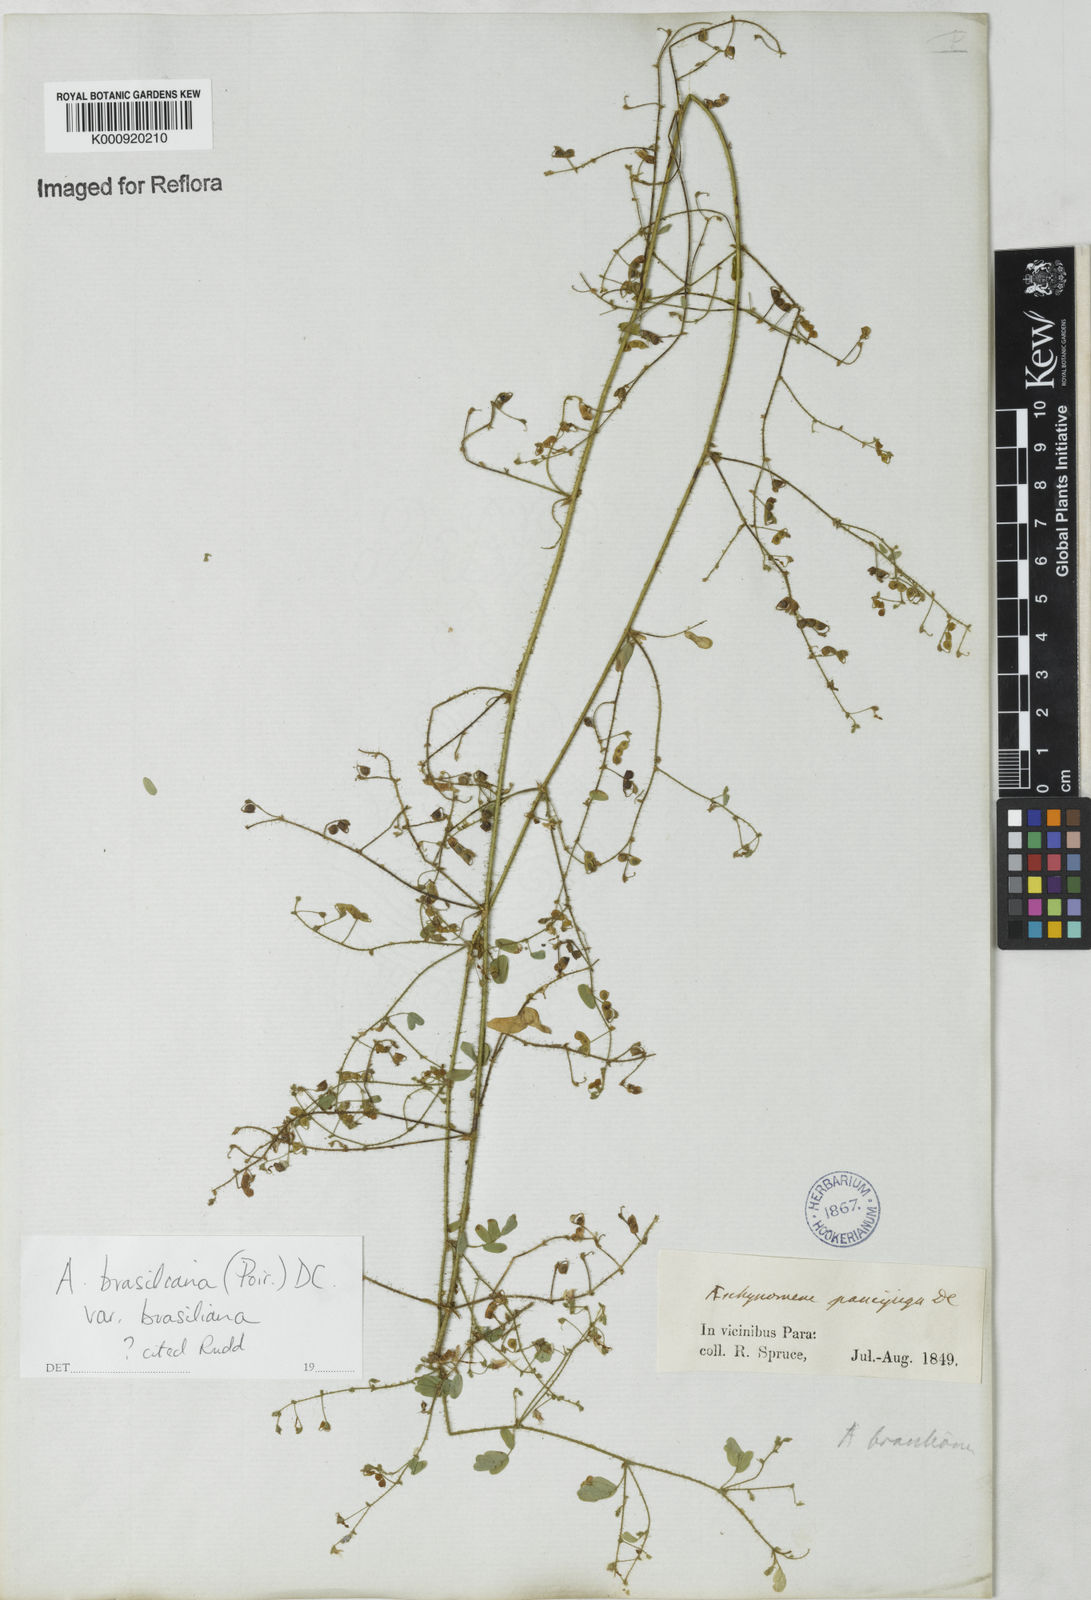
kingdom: Plantae
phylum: Tracheophyta
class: Magnoliopsida
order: Fabales
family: Fabaceae
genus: Ctenodon
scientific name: Ctenodon brasilianus
